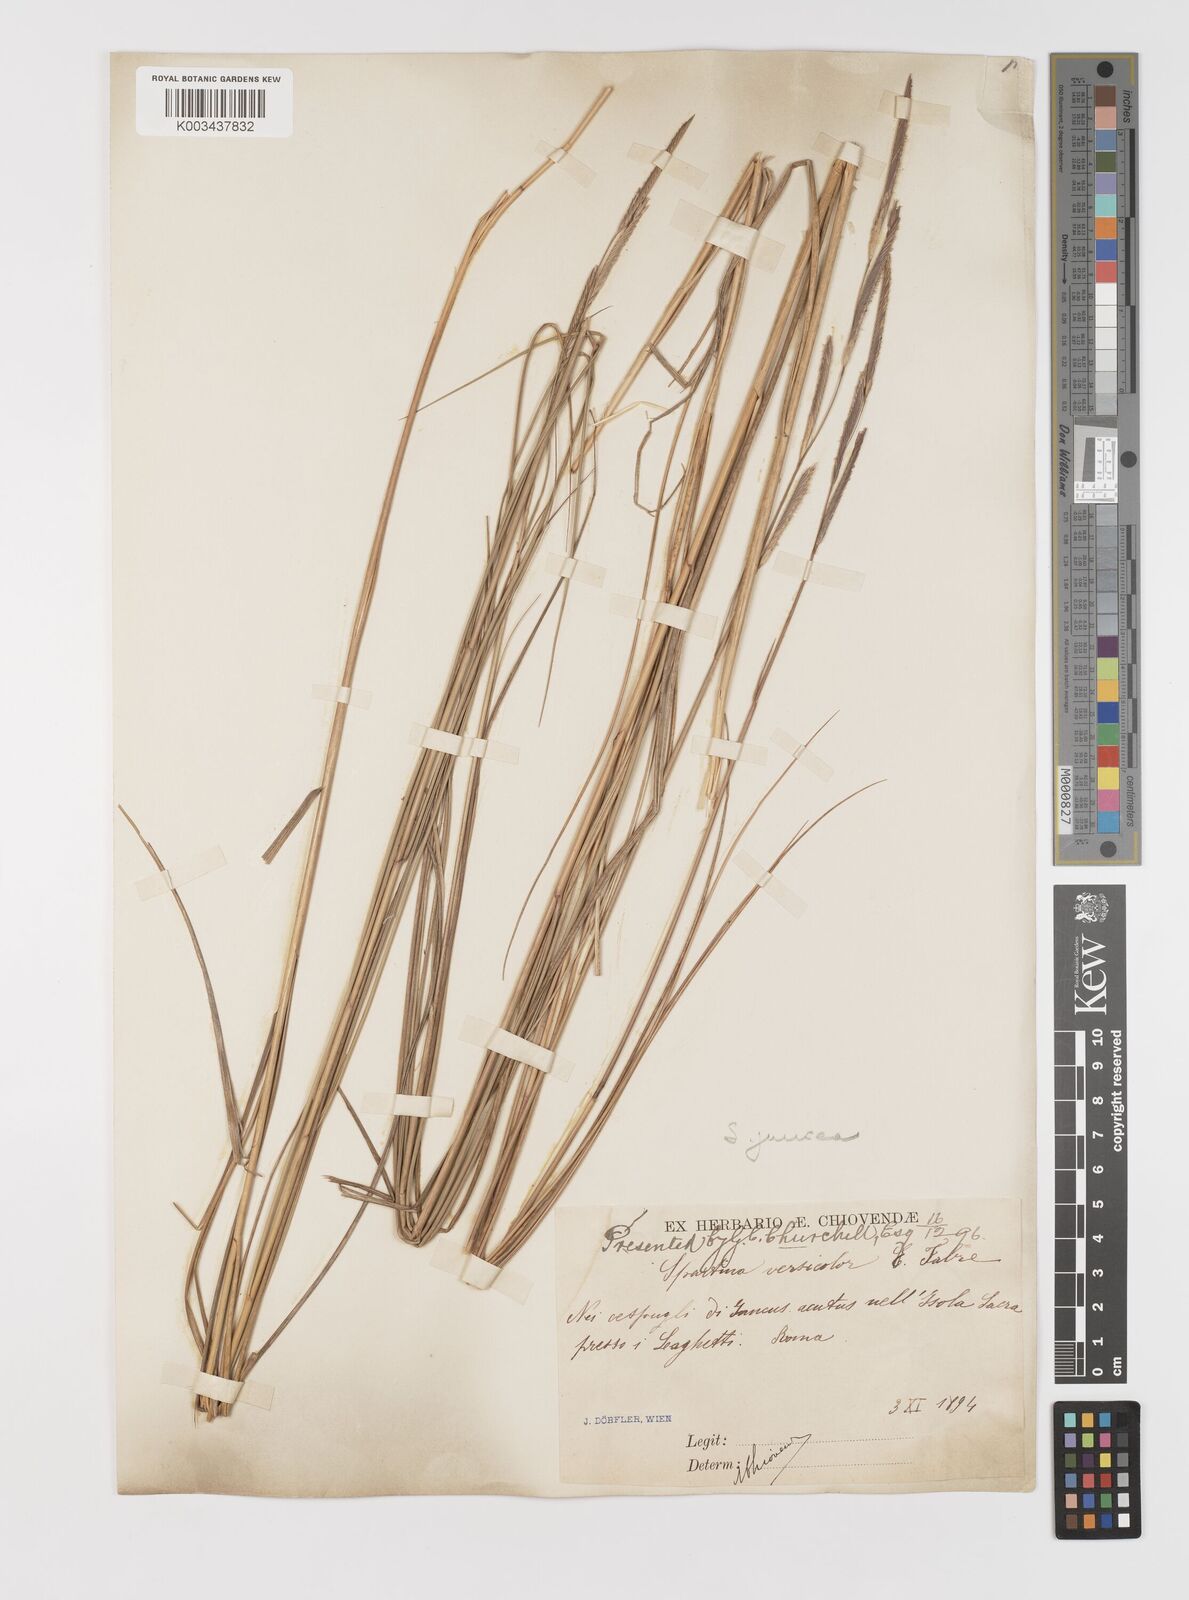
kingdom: Plantae
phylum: Tracheophyta
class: Liliopsida
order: Poales
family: Poaceae
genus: Sporobolus
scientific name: Sporobolus versicolor
